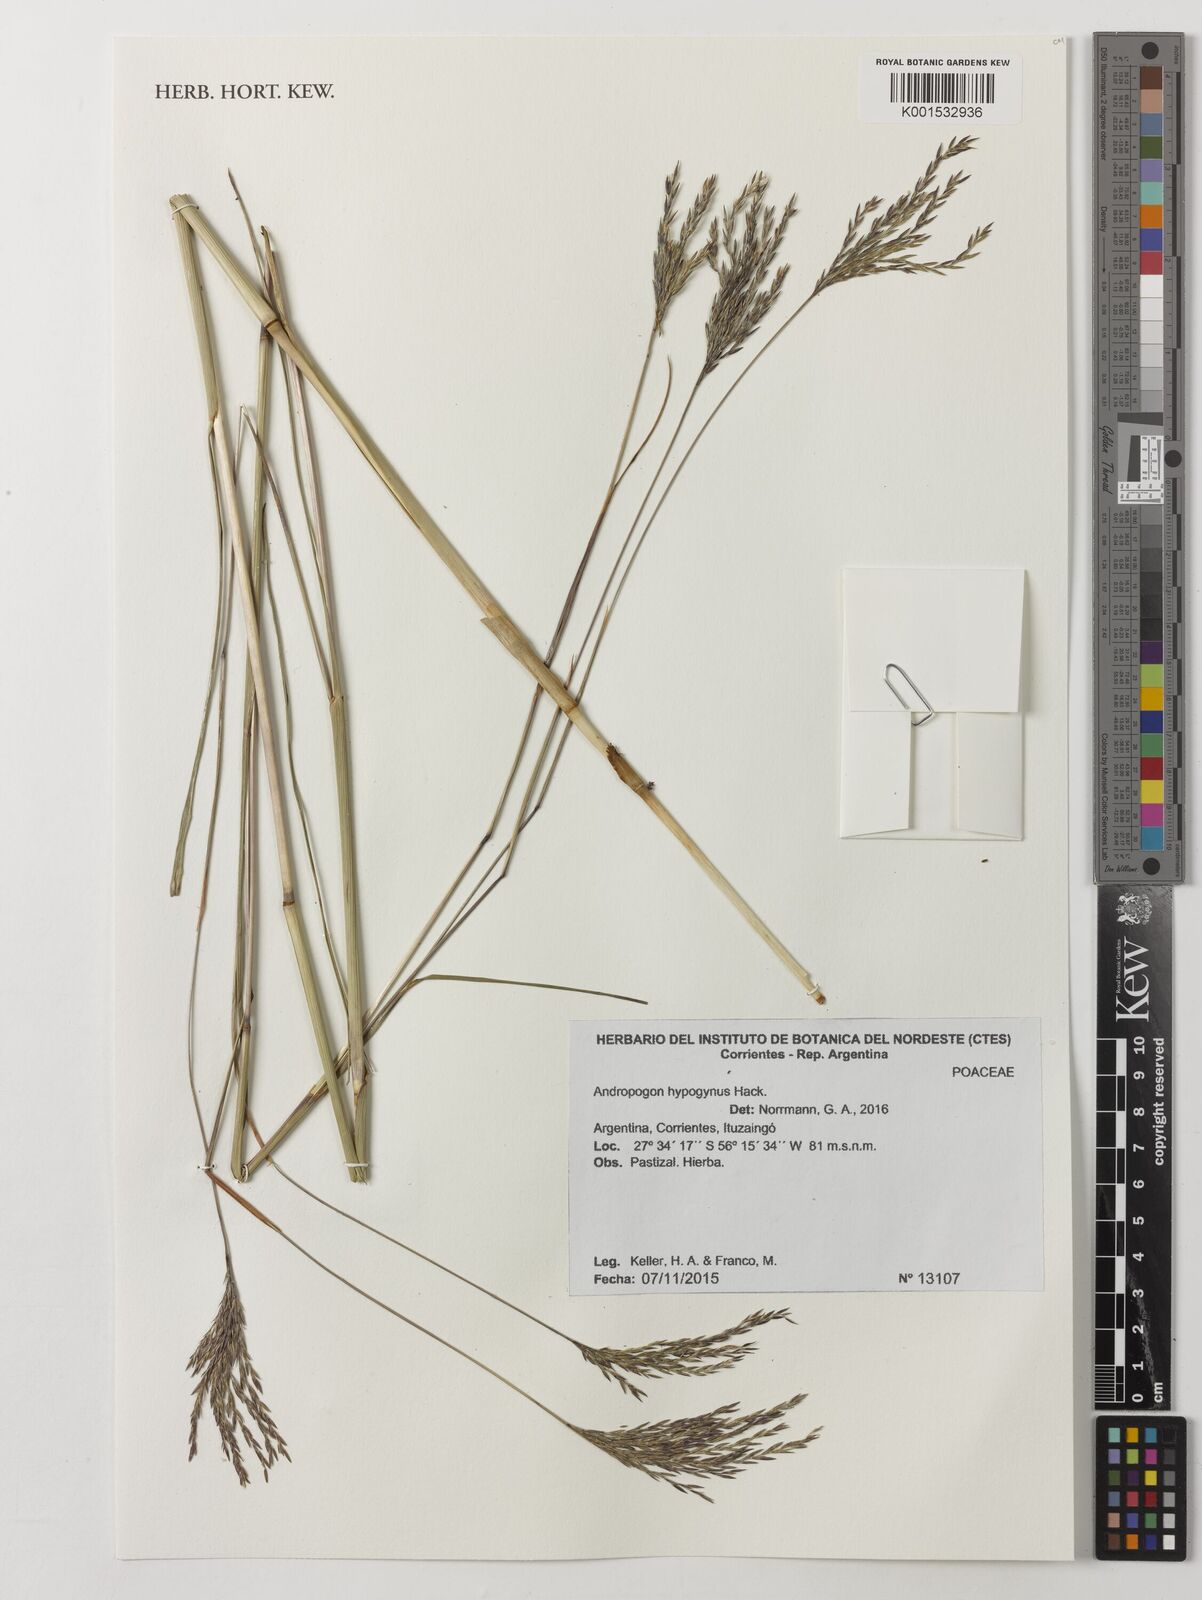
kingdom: Plantae
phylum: Tracheophyta
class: Liliopsida
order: Poales
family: Poaceae
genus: Andropogon
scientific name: Andropogon hypogynus
